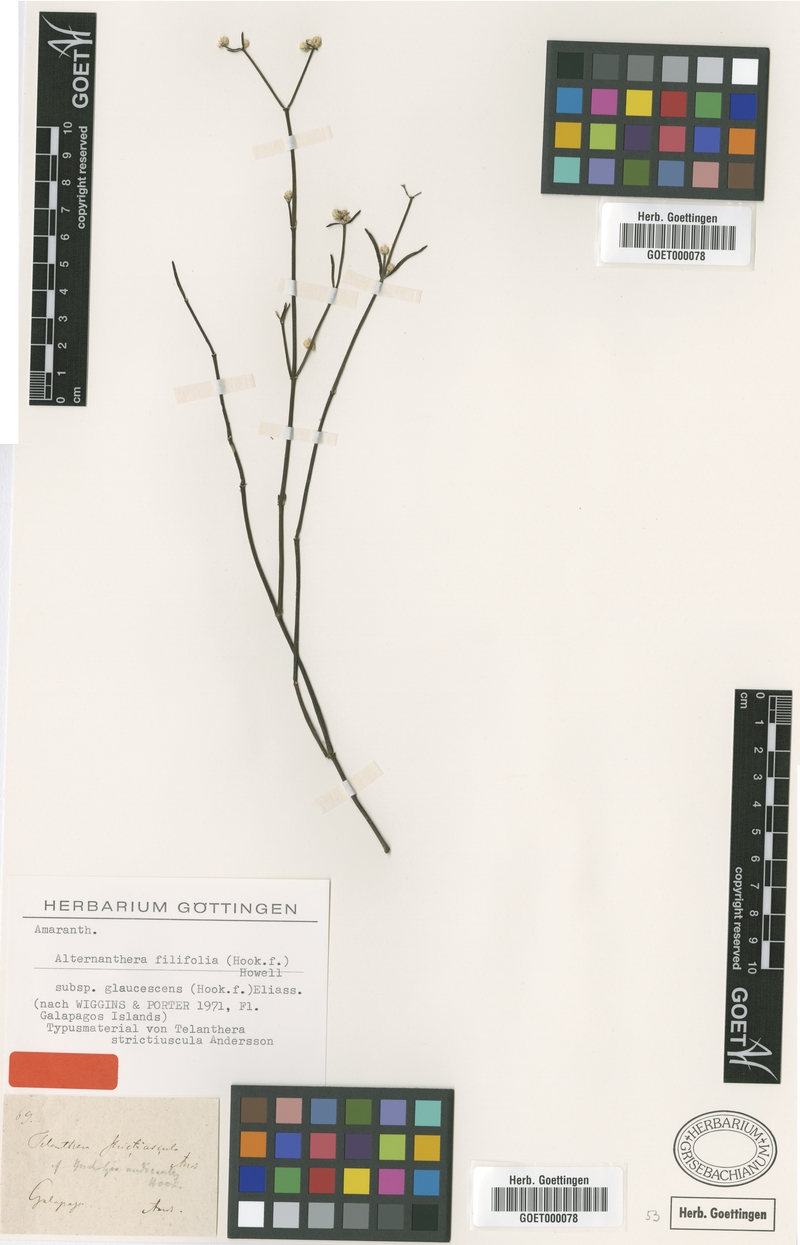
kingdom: Plantae
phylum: Tracheophyta
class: Magnoliopsida
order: Caryophyllales
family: Amaranthaceae
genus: Alternanthera
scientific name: Alternanthera filifolia
